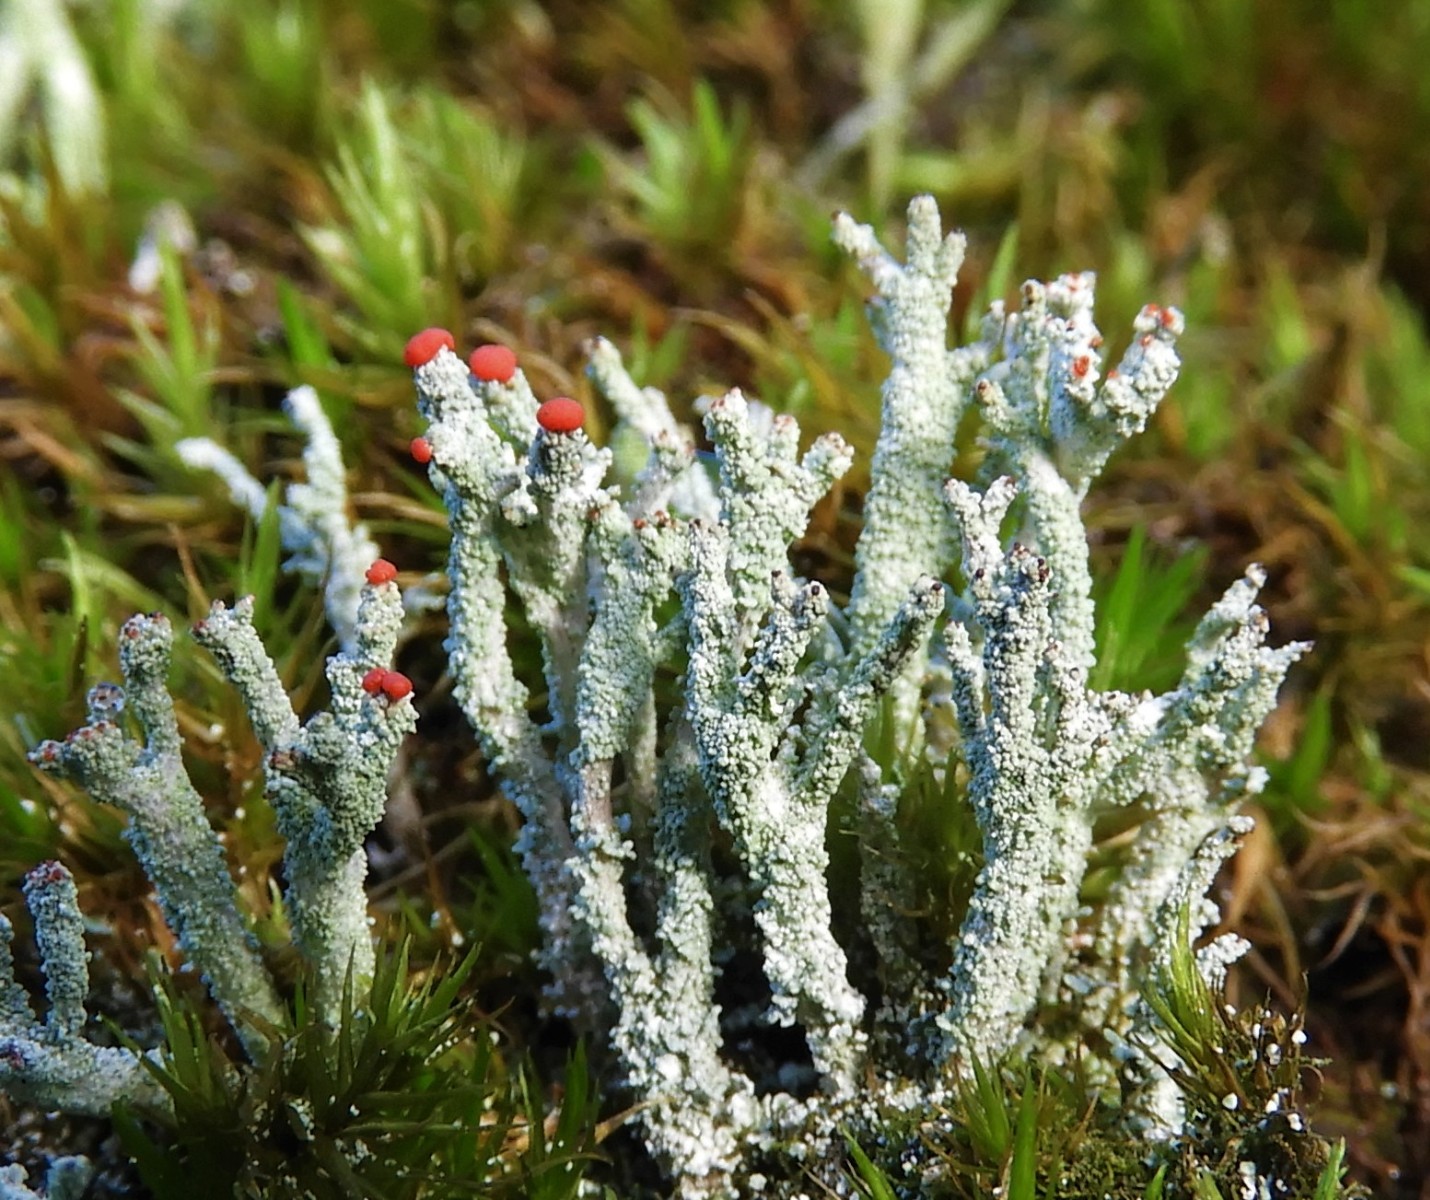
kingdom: Fungi
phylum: Ascomycota
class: Lecanoromycetes
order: Lecanorales
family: Cladoniaceae
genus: Cladonia
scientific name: Cladonia floerkeana
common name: lakrød bægerlav
